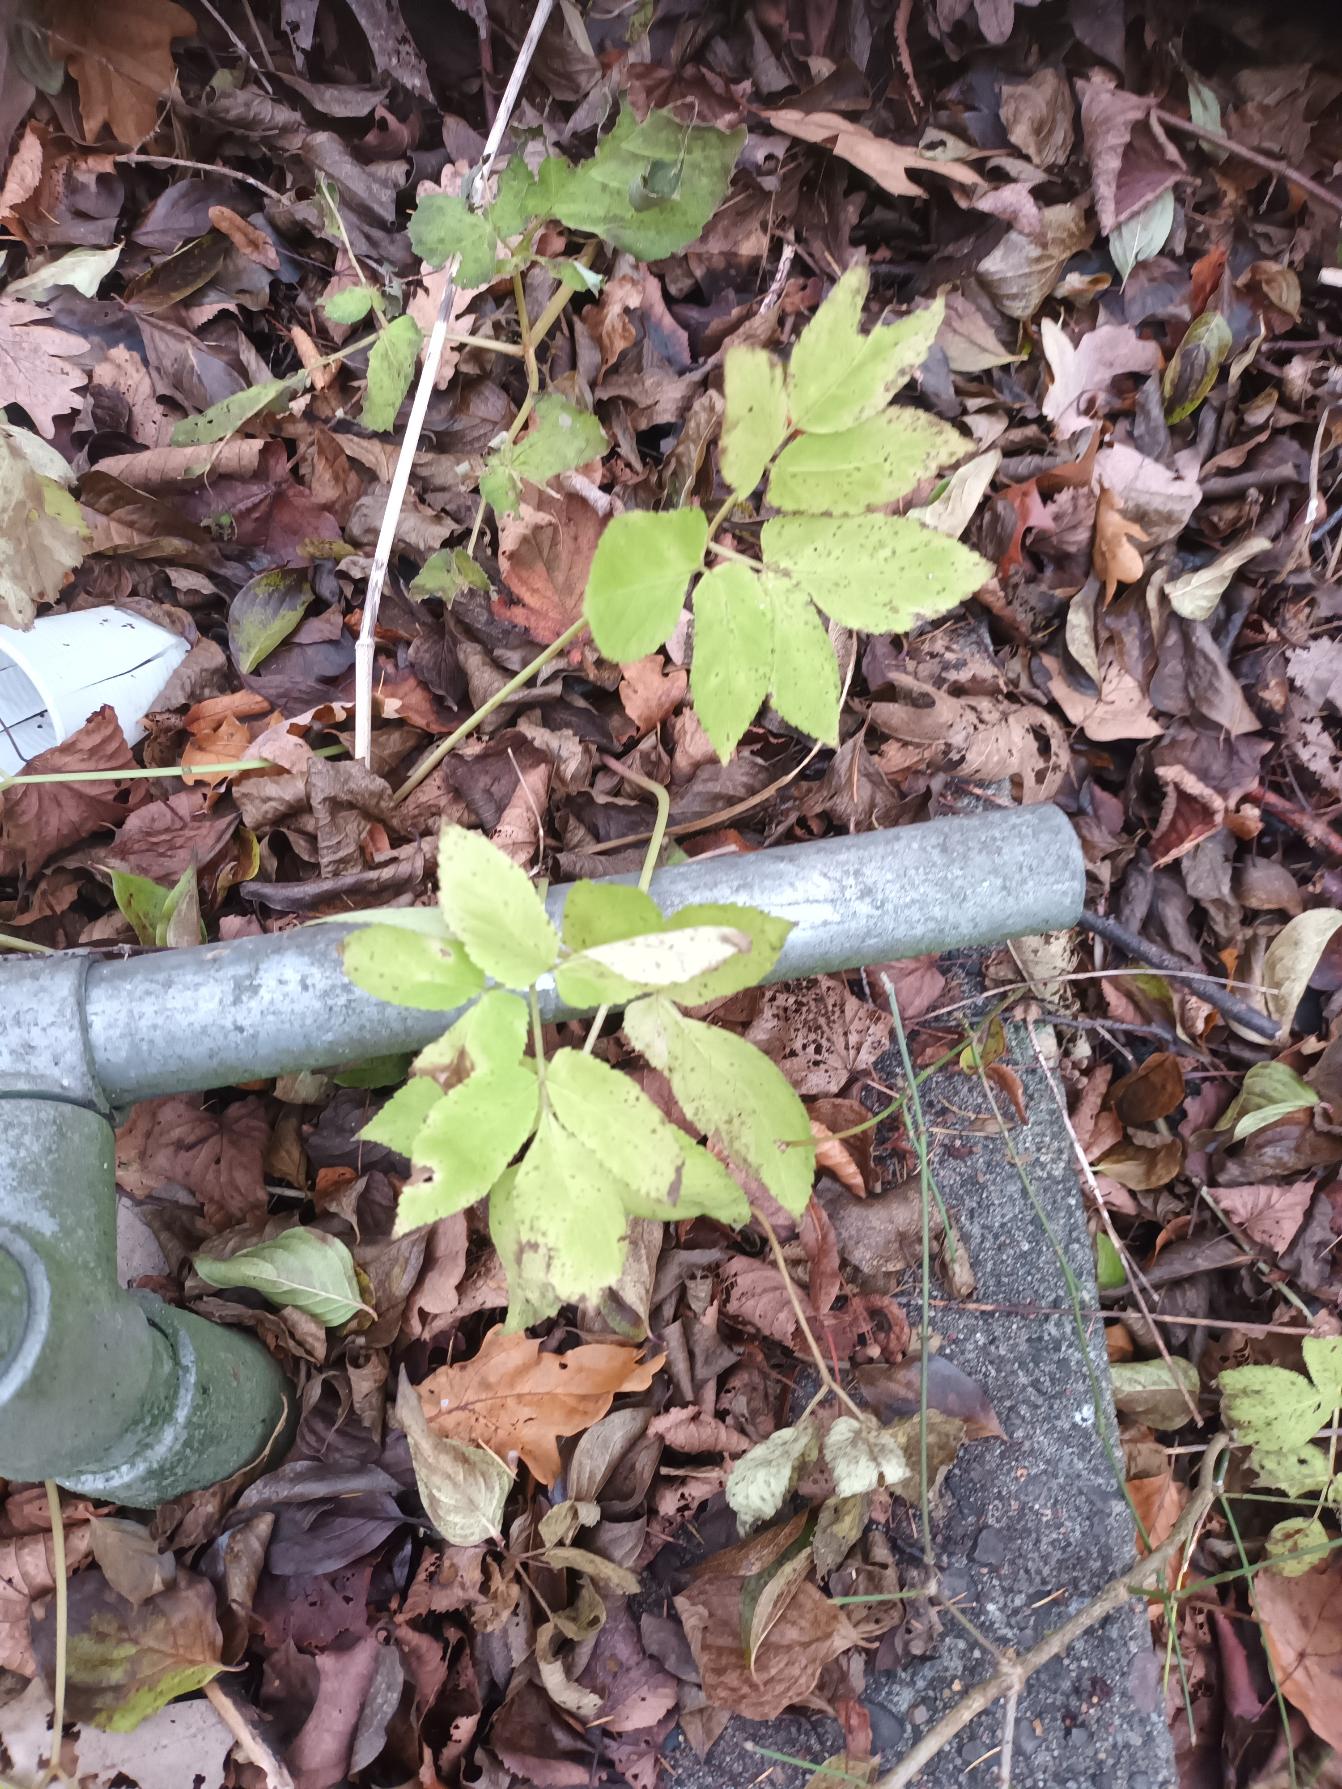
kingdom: Plantae
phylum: Tracheophyta
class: Magnoliopsida
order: Apiales
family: Apiaceae
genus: Aegopodium
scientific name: Aegopodium podagraria
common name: Skvalderkål
